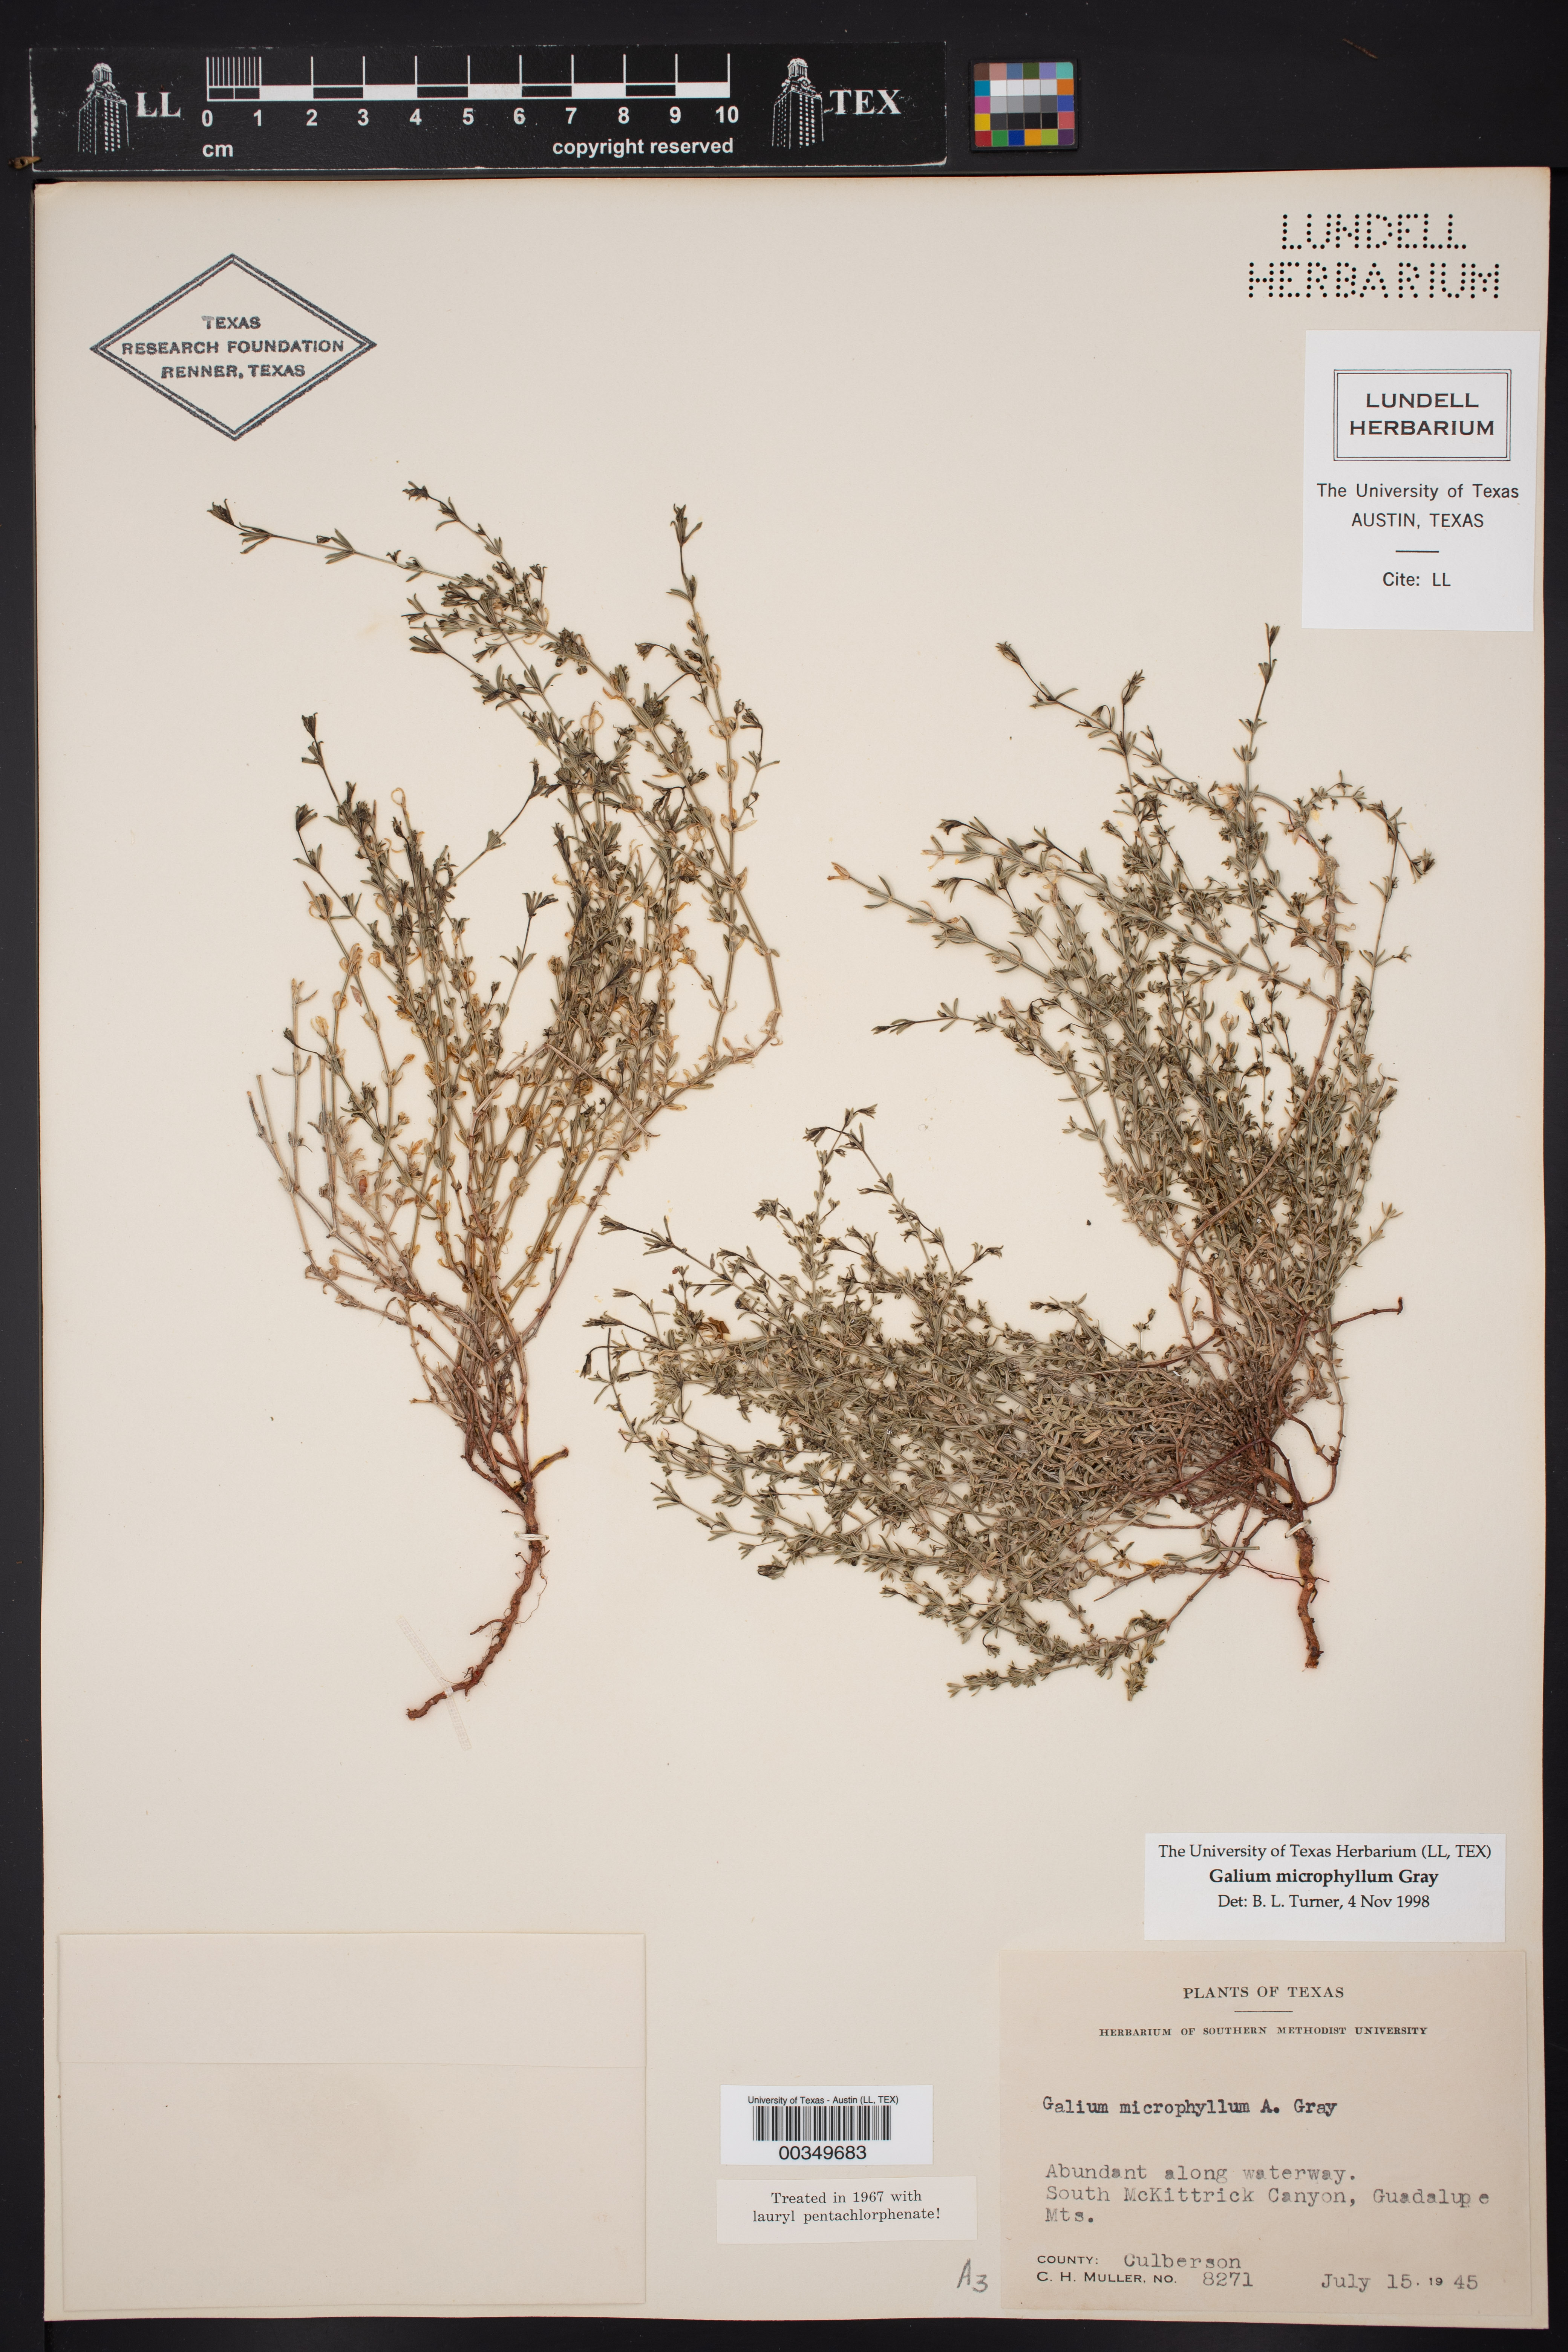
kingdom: Plantae
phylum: Tracheophyta
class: Magnoliopsida
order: Gentianales
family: Rubiaceae
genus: Galium
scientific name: Galium microphyllum
